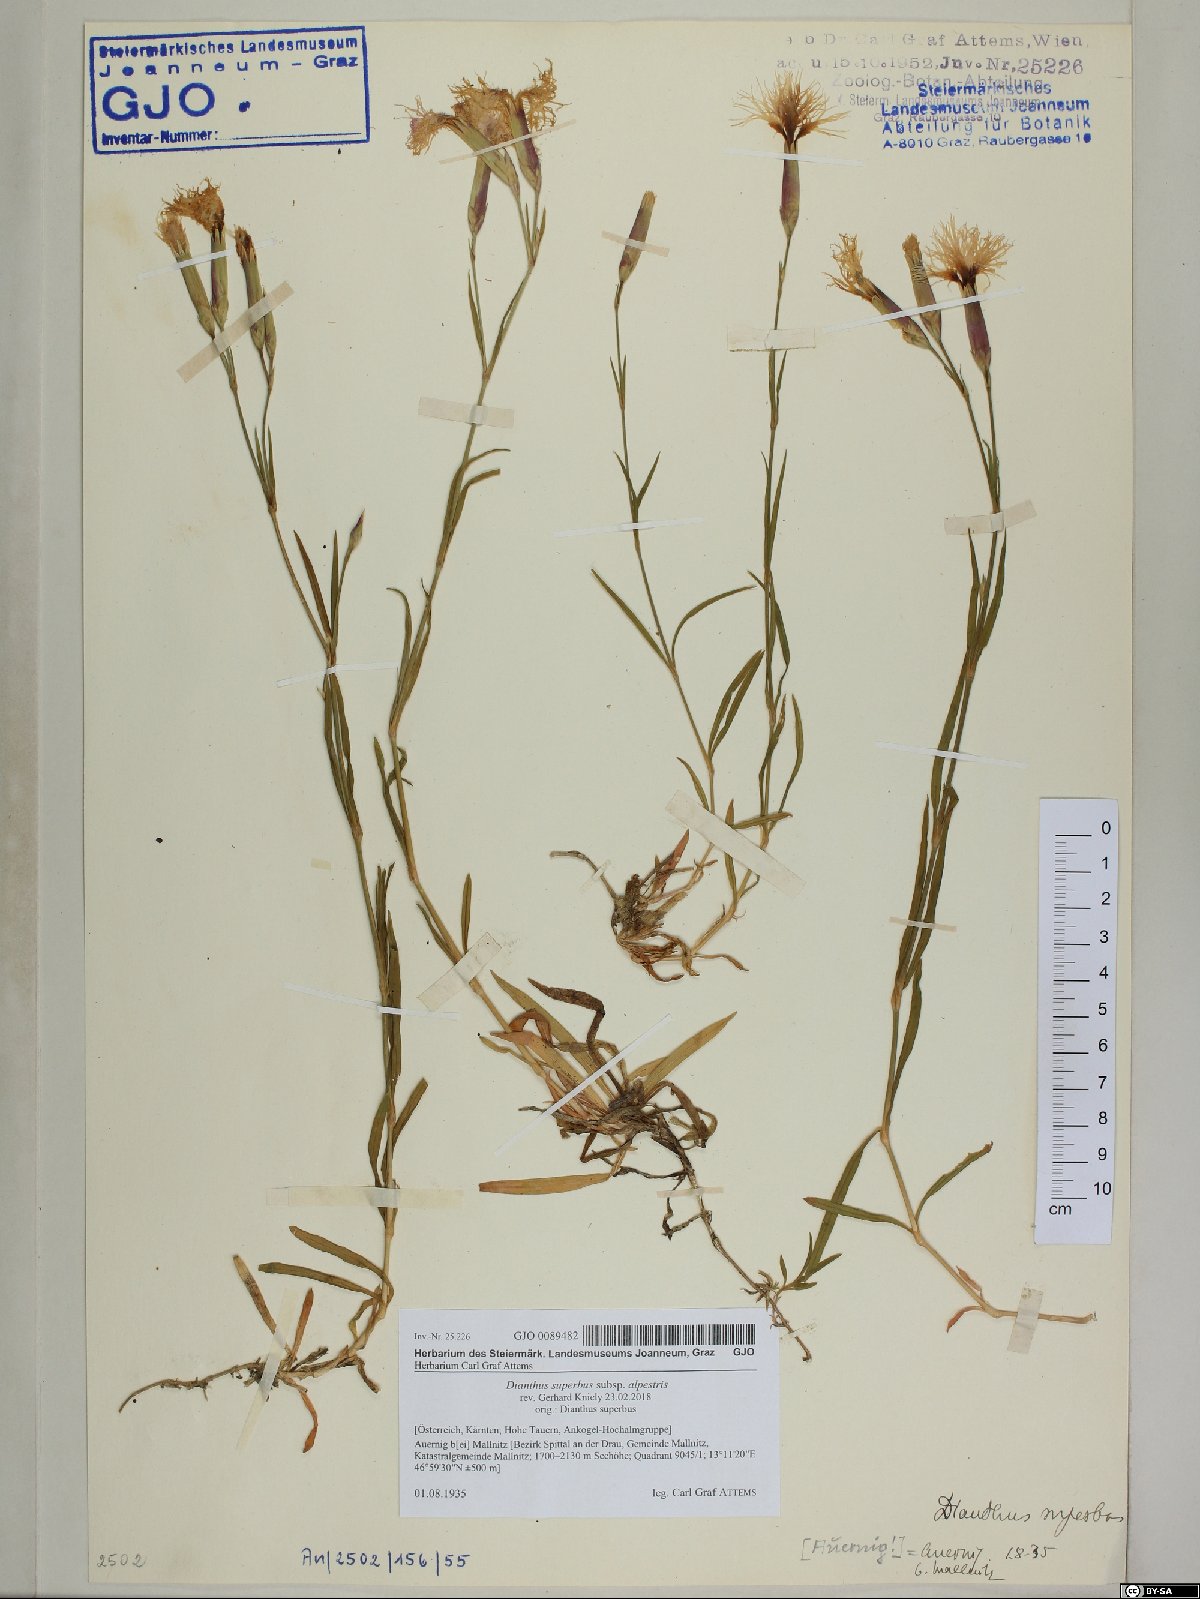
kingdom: Plantae
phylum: Tracheophyta
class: Magnoliopsida
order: Caryophyllales
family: Caryophyllaceae
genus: Dianthus
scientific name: Dianthus superbus
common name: Fringed pink
